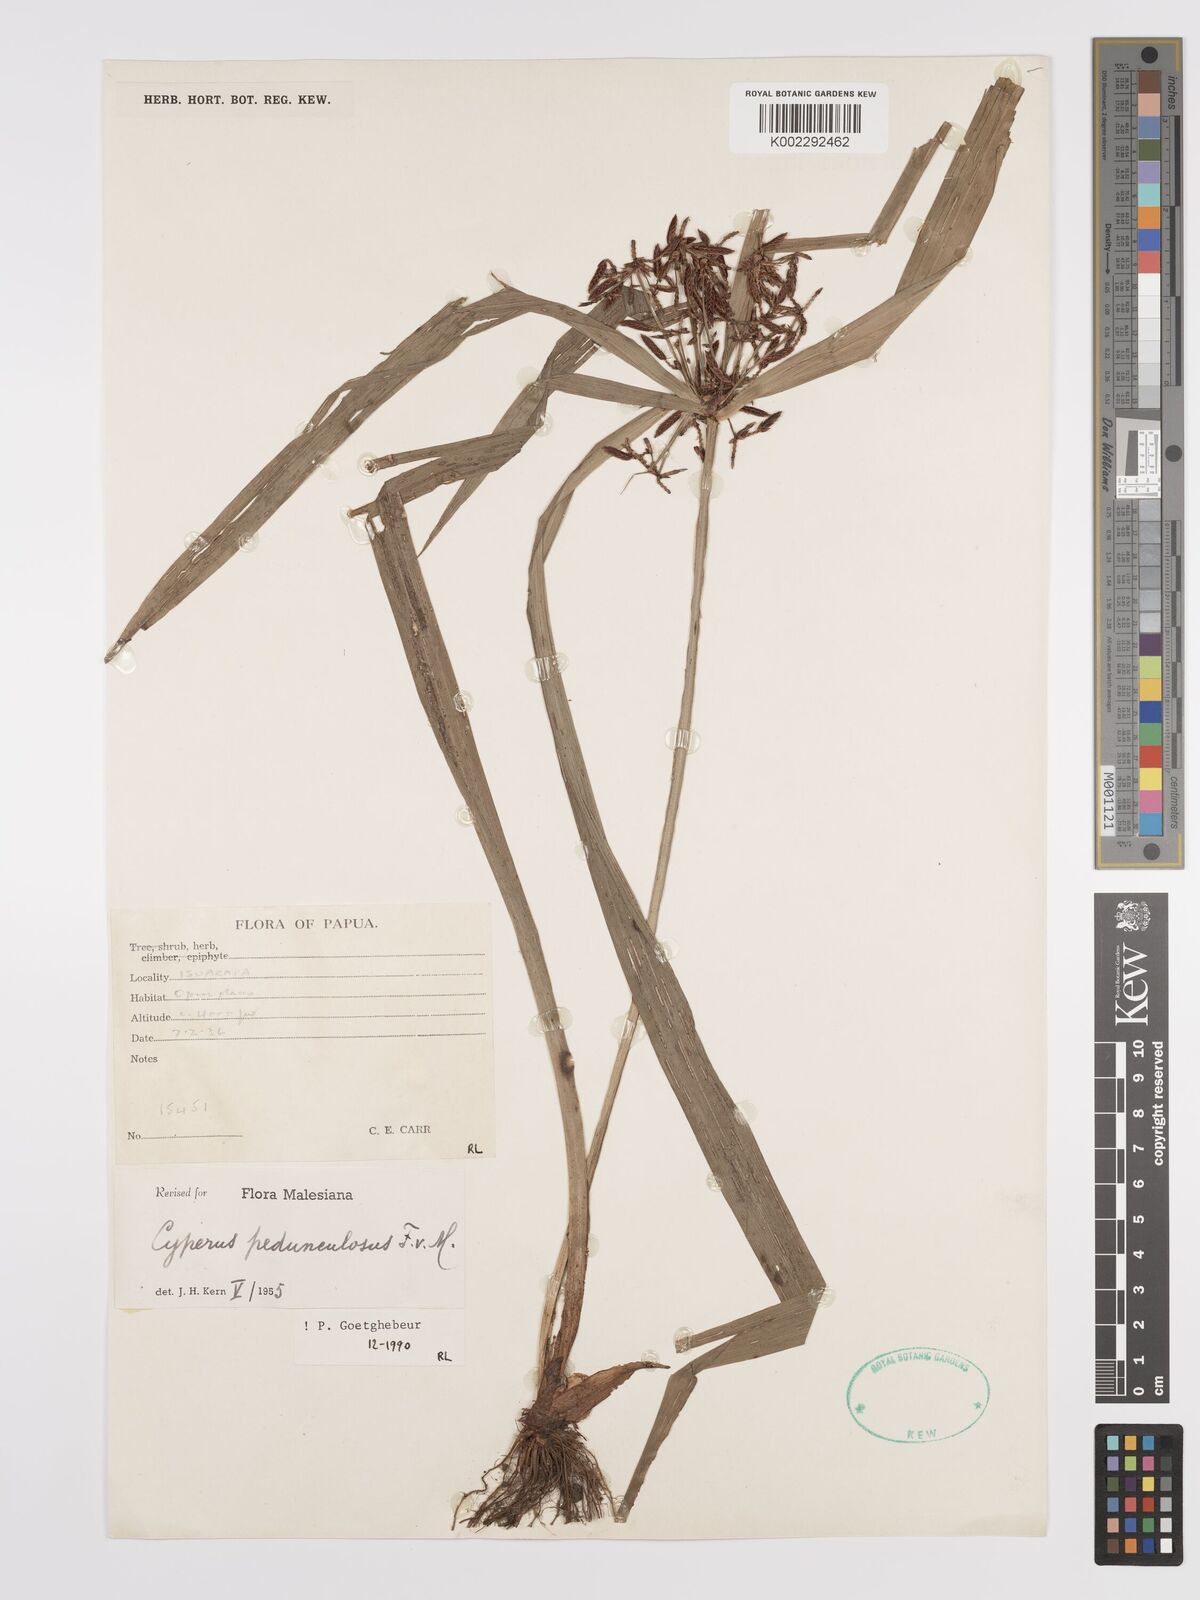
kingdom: Plantae
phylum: Tracheophyta
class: Liliopsida
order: Poales
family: Cyperaceae
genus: Cyperus
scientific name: Cyperus pedunculosus
